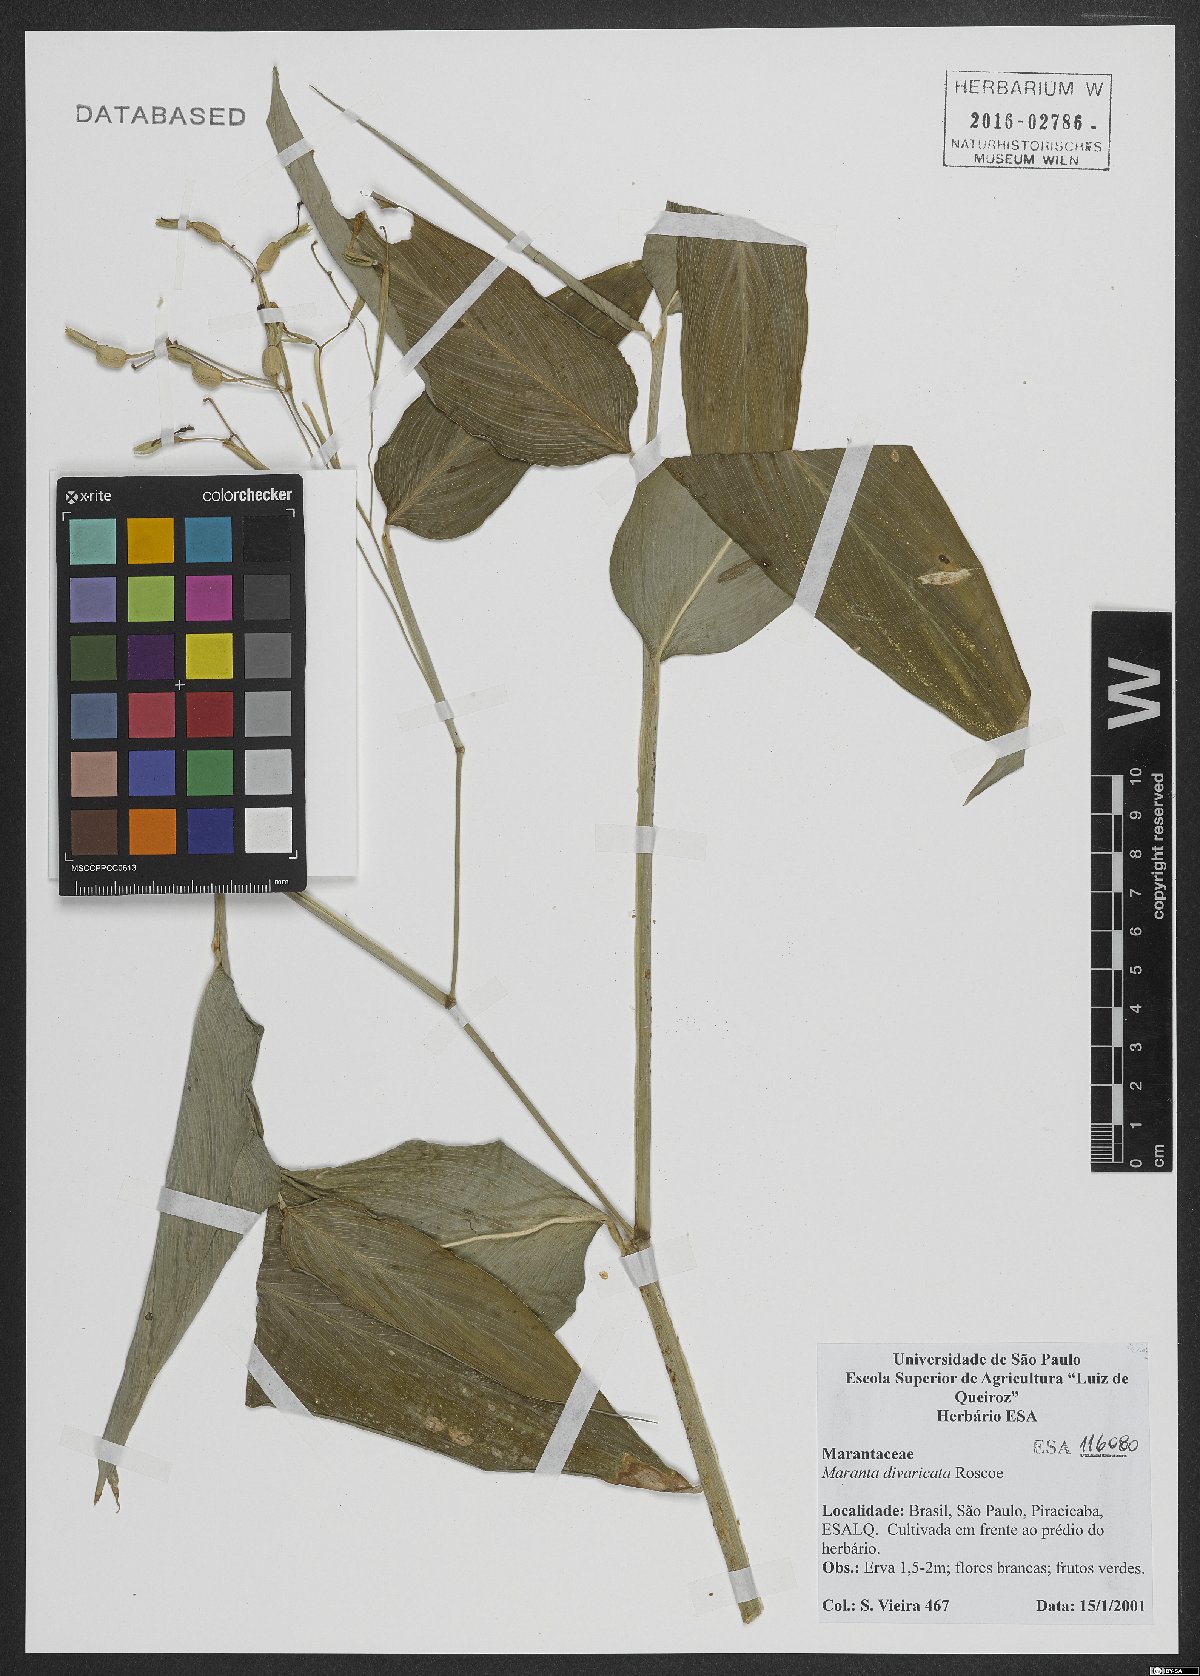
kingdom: Plantae
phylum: Tracheophyta
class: Liliopsida
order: Zingiberales
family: Marantaceae
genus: Maranta
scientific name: Maranta divaricata
